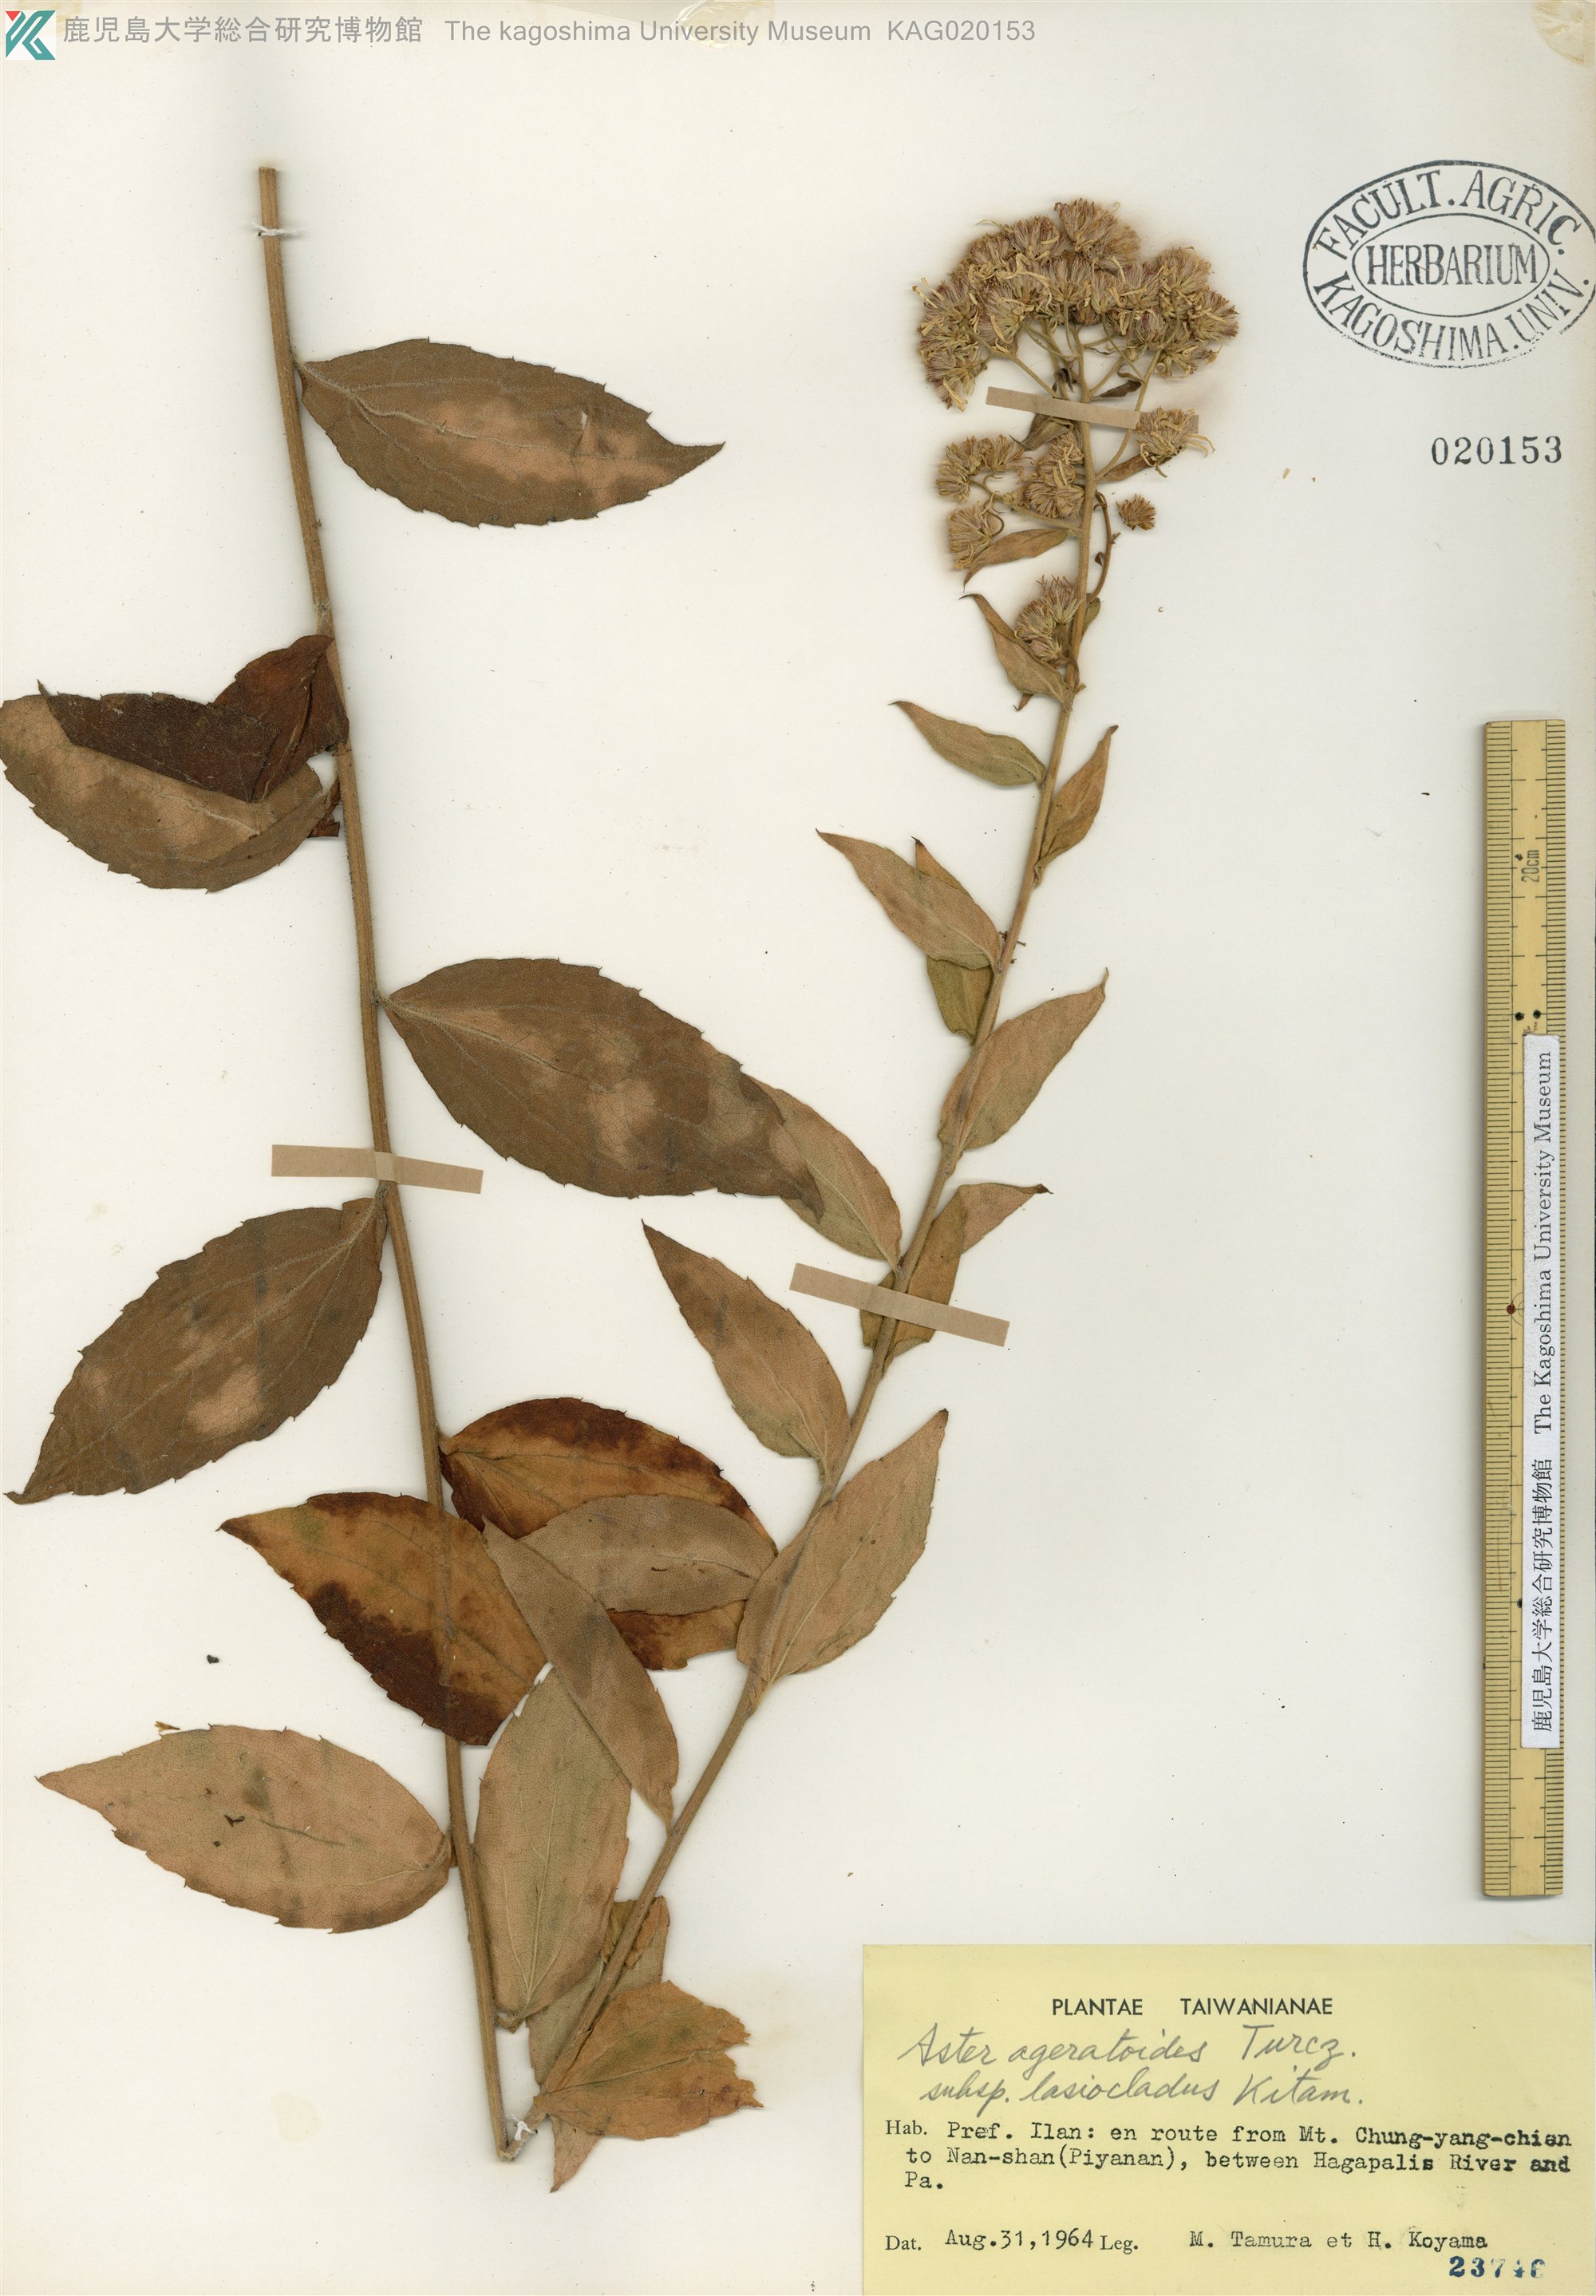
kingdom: Plantae
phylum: Tracheophyta
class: Magnoliopsida
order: Asterales
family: Asteraceae
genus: Aster
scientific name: Aster ageratoides
